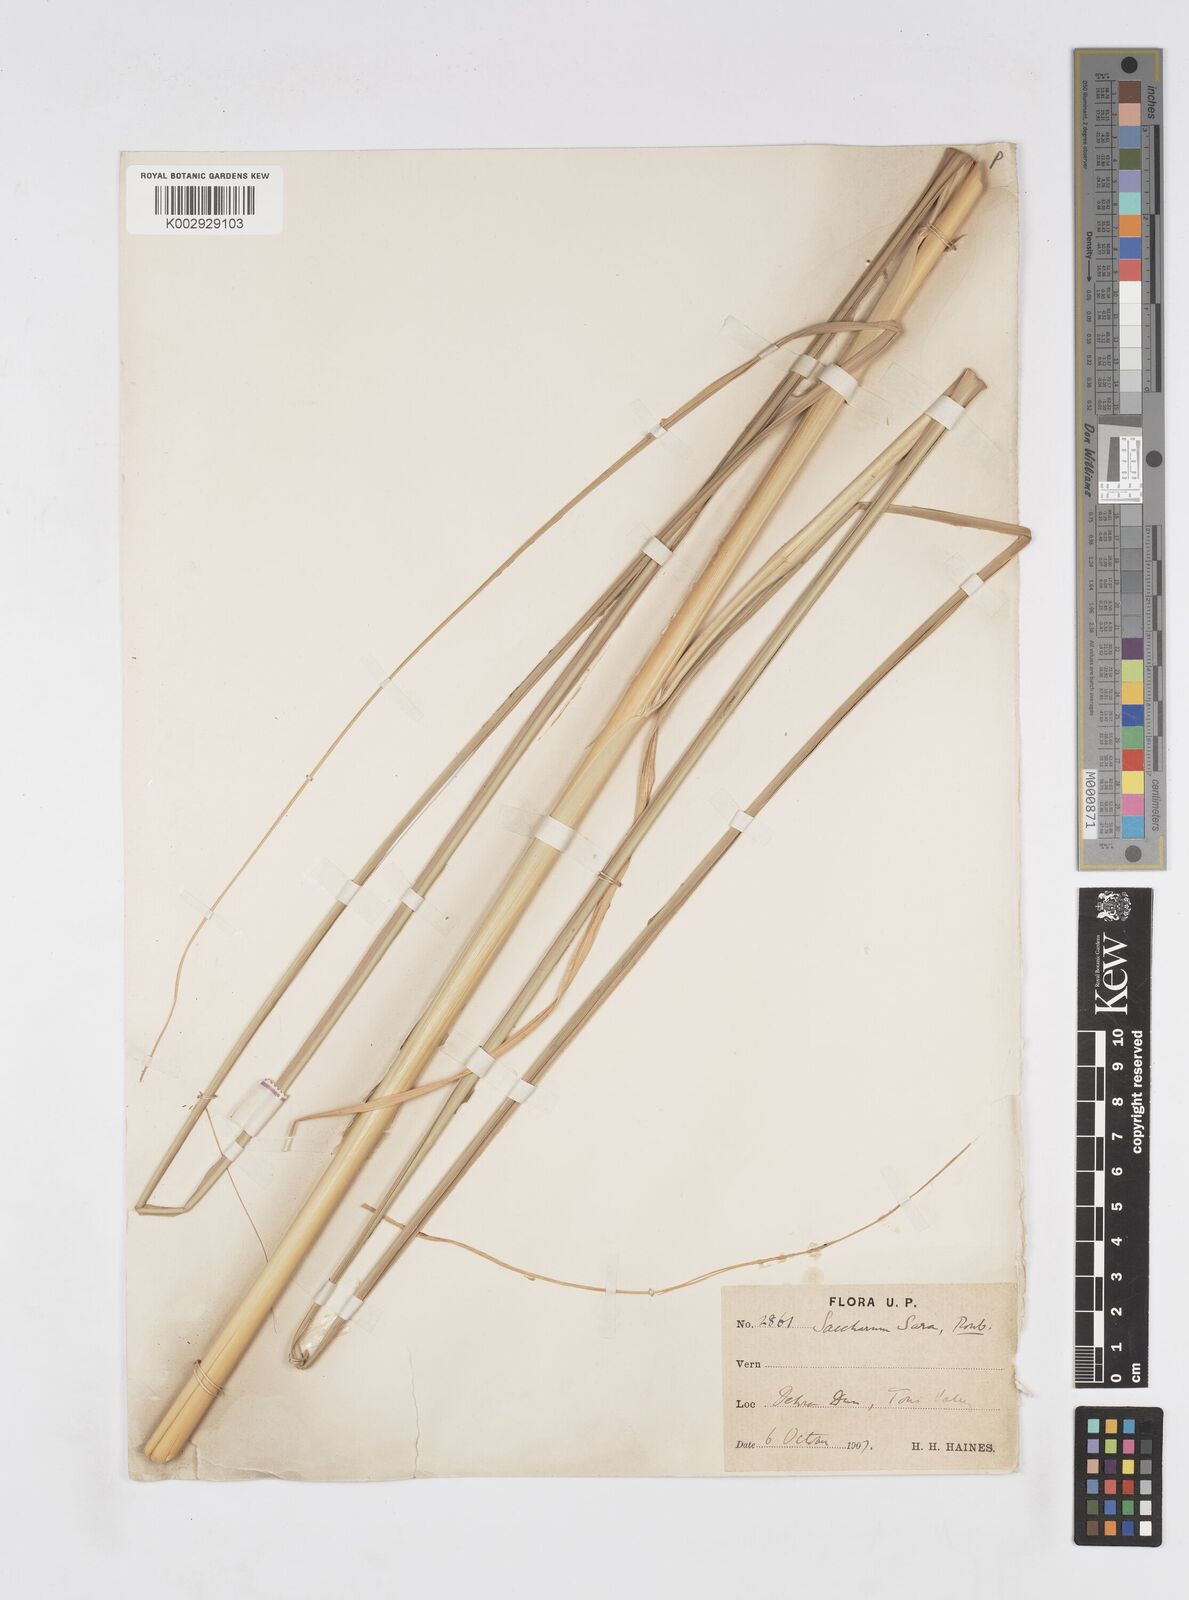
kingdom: Plantae
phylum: Tracheophyta
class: Liliopsida
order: Poales
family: Poaceae
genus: Tripidium
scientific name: Tripidium bengalense
